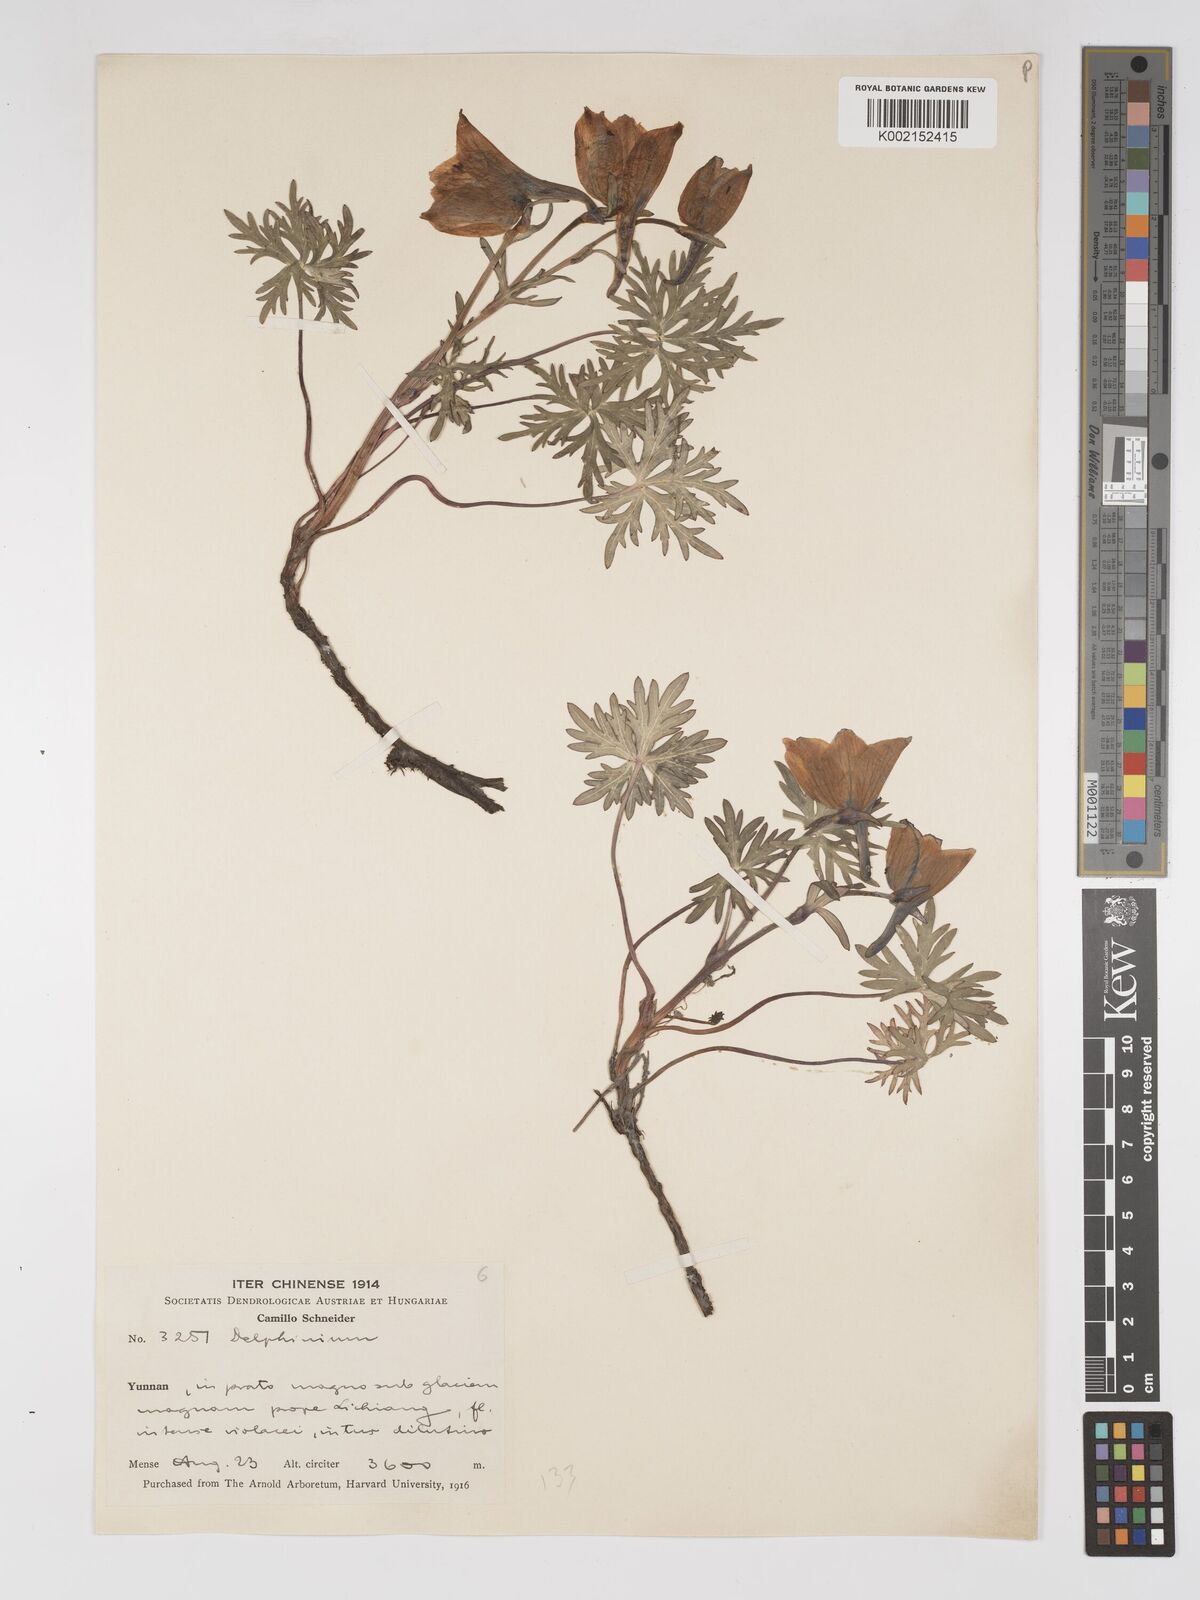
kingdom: Plantae
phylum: Tracheophyta
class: Magnoliopsida
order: Ranunculales
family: Ranunculaceae
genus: Delphinium
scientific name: Delphinium likiangense
